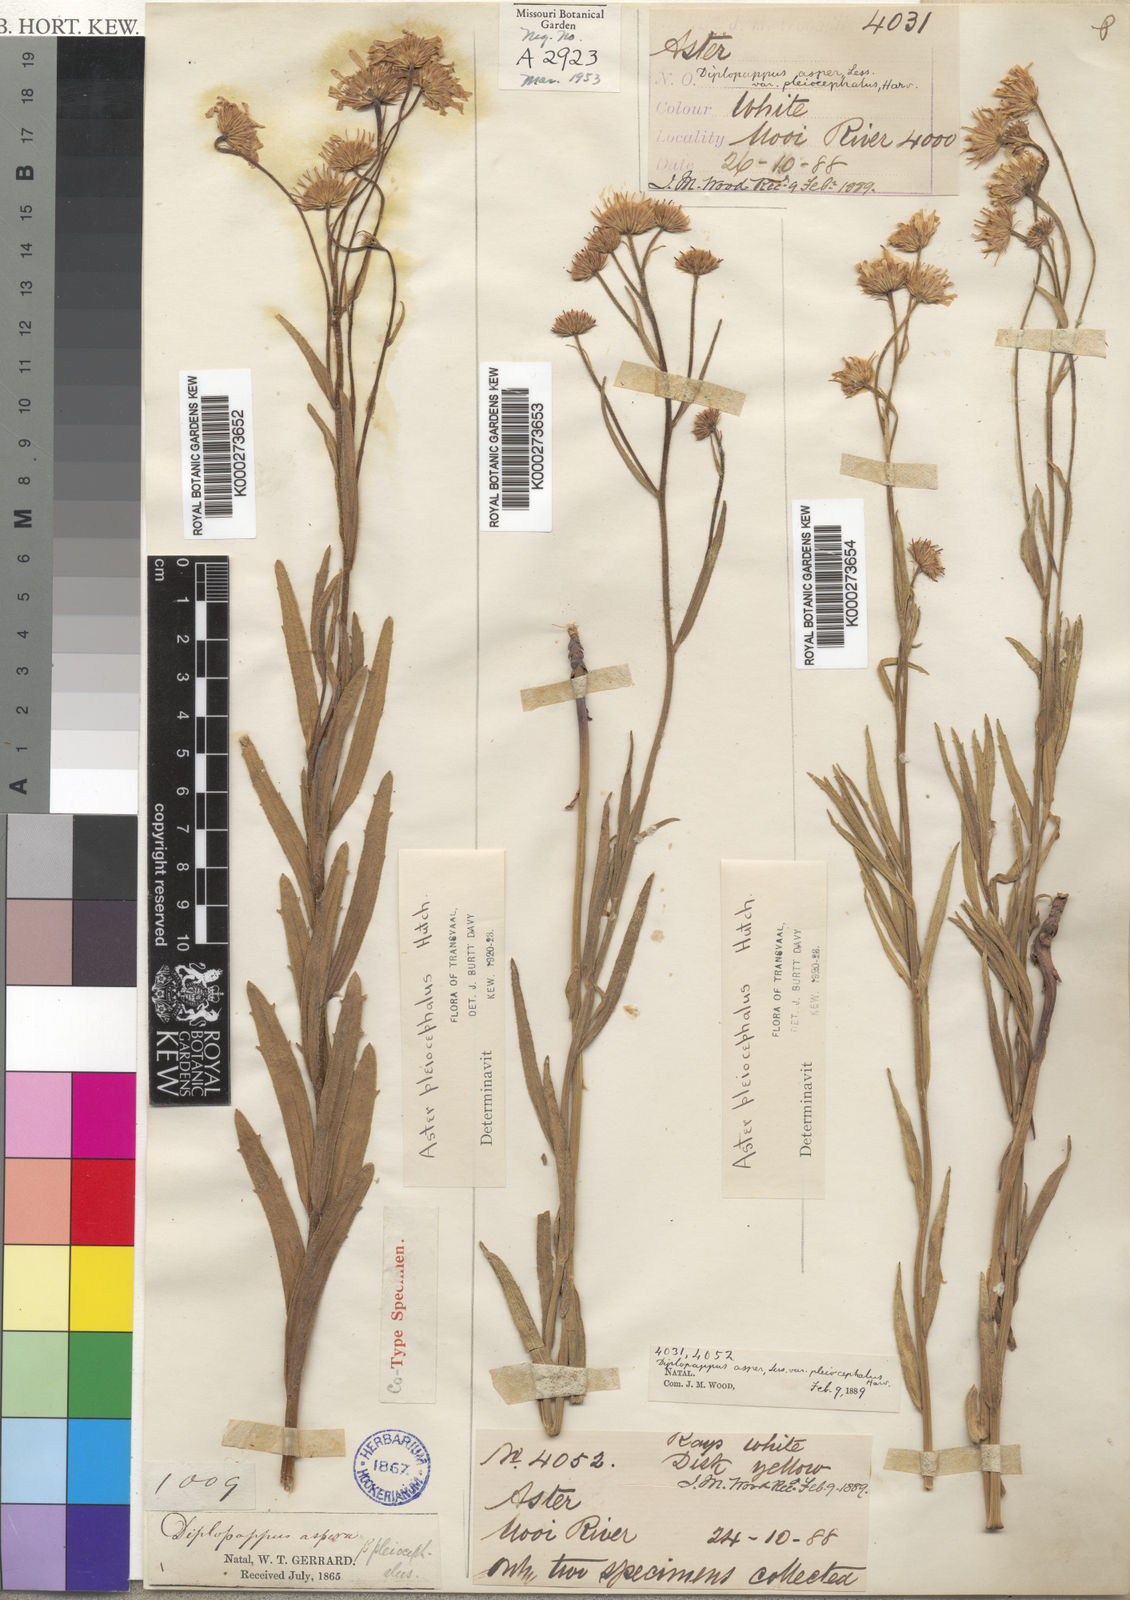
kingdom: Plantae
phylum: Tracheophyta
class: Magnoliopsida
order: Asterales
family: Asteraceae
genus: Afroaster
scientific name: Afroaster pleiocephalus
